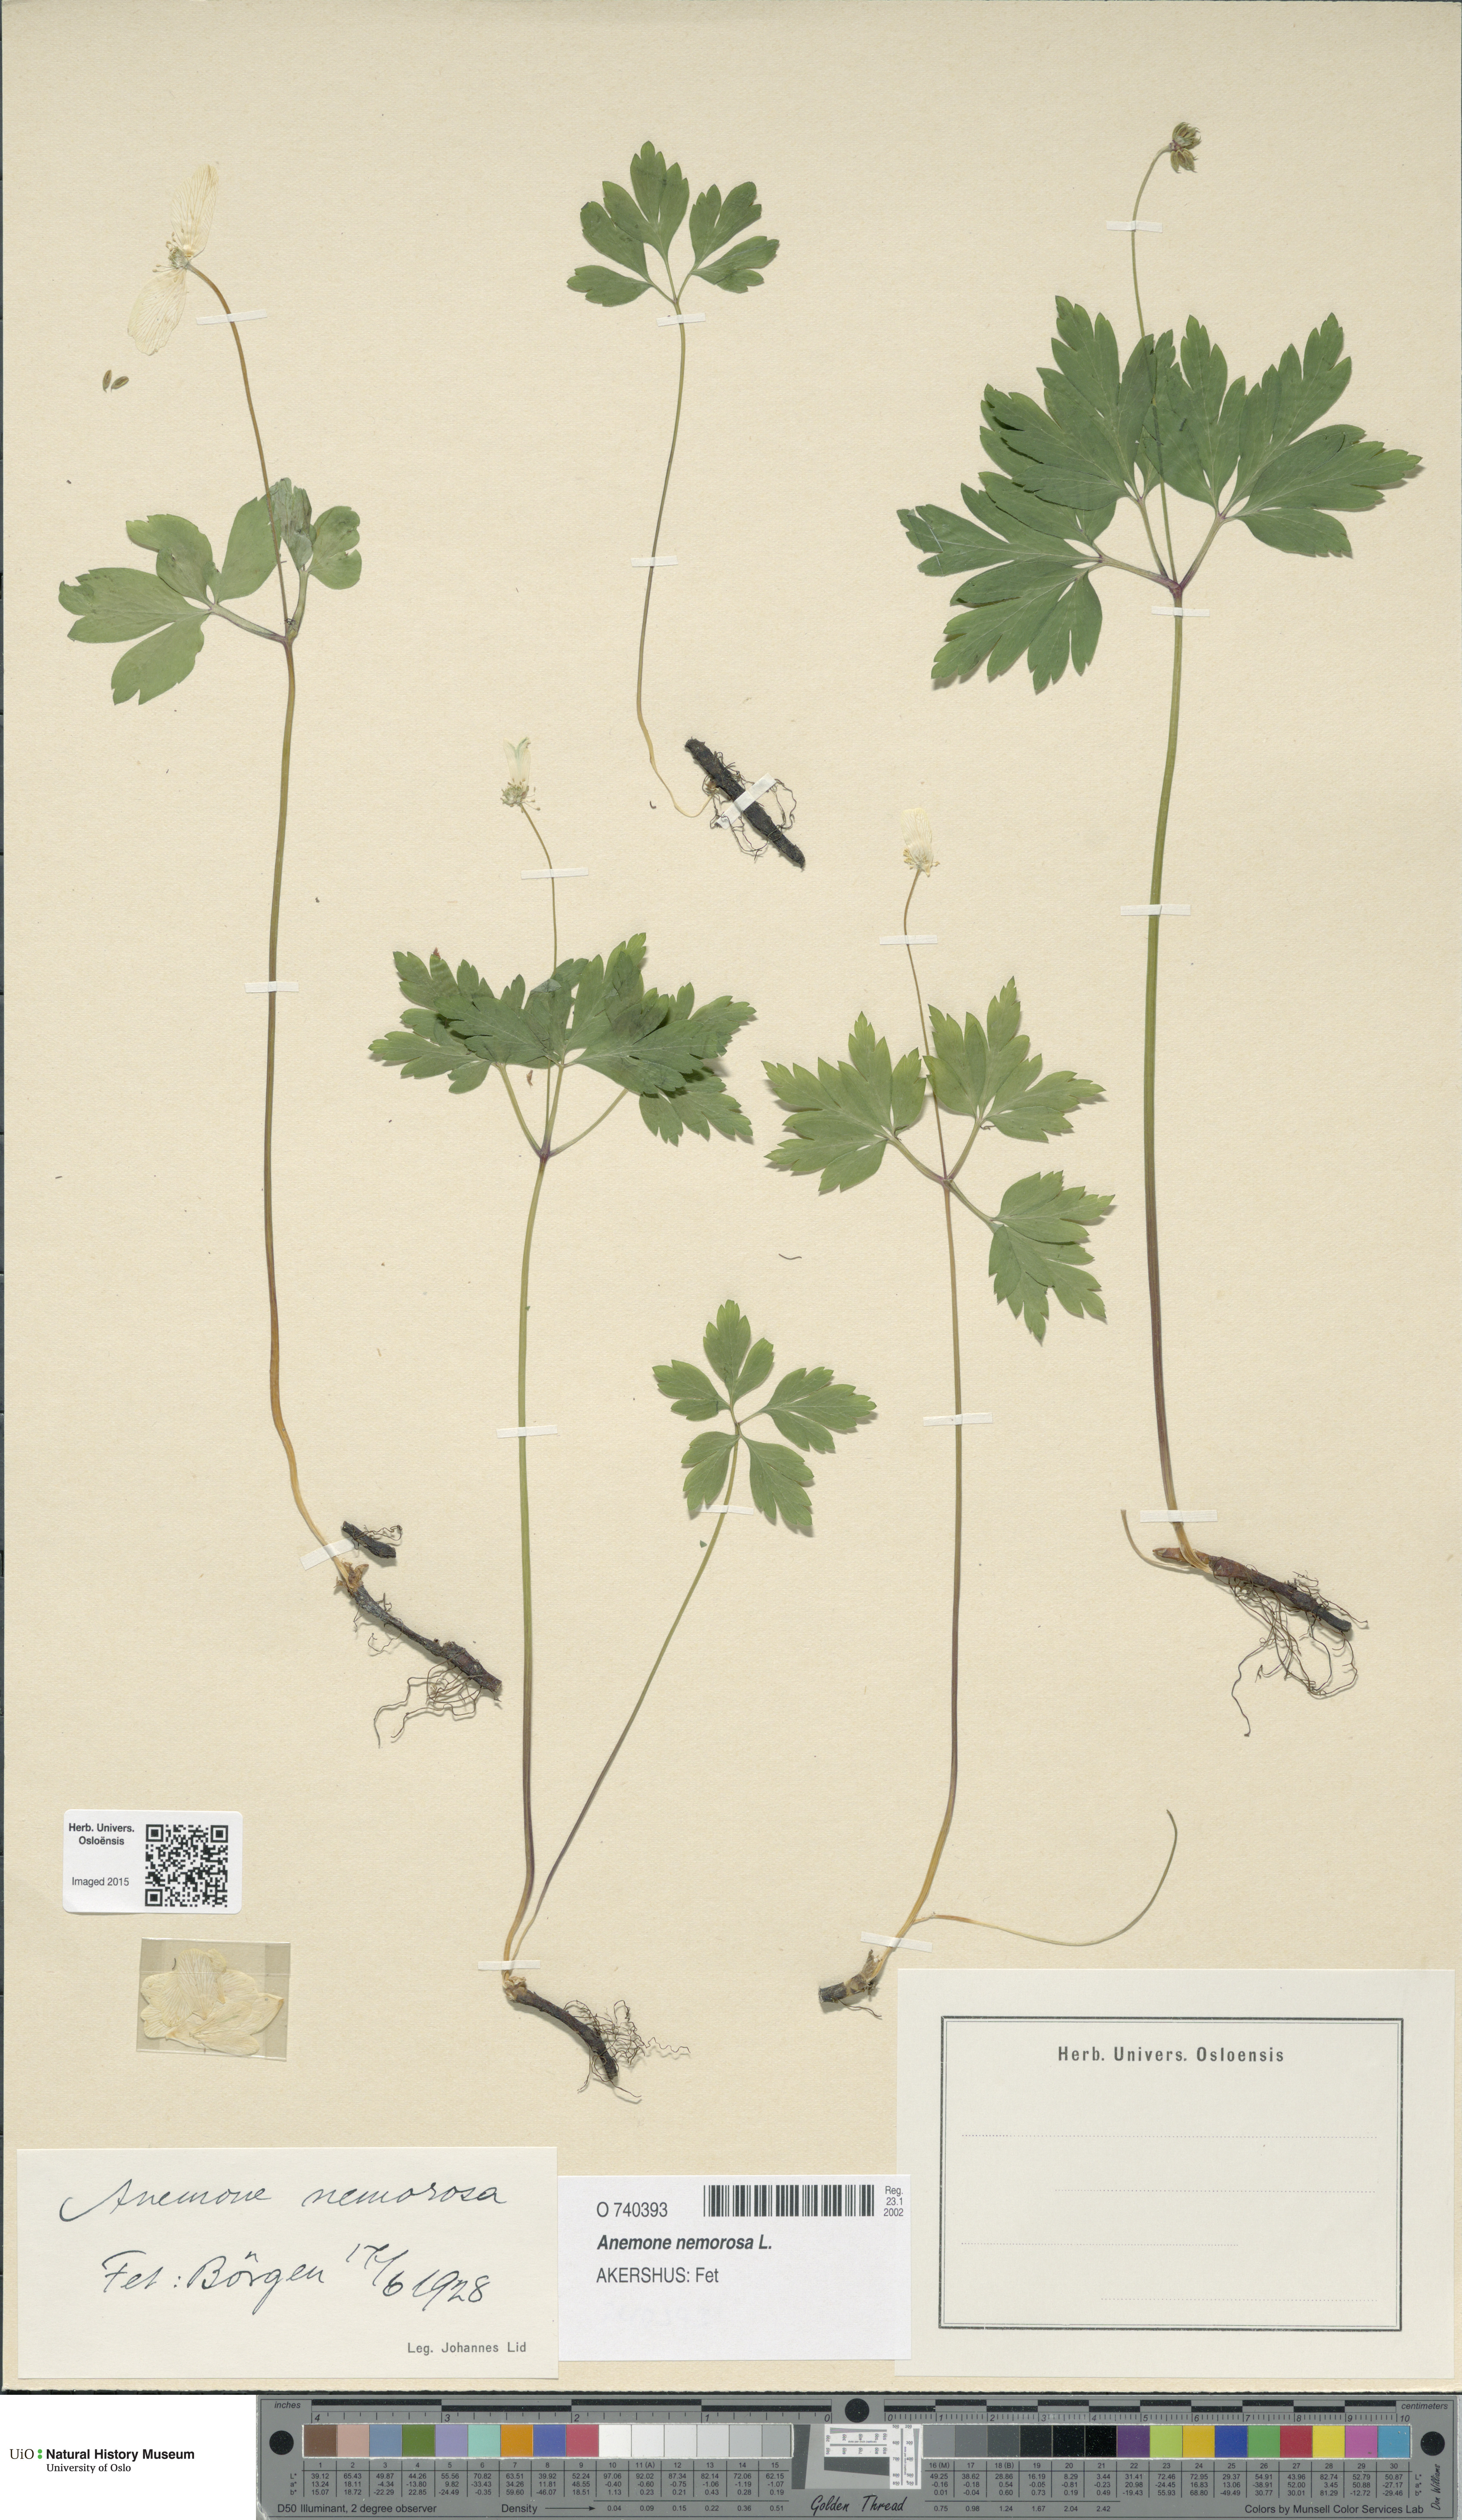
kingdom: Plantae
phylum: Tracheophyta
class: Magnoliopsida
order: Ranunculales
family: Ranunculaceae
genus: Anemone
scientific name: Anemone nemorosa
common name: Wood anemone
